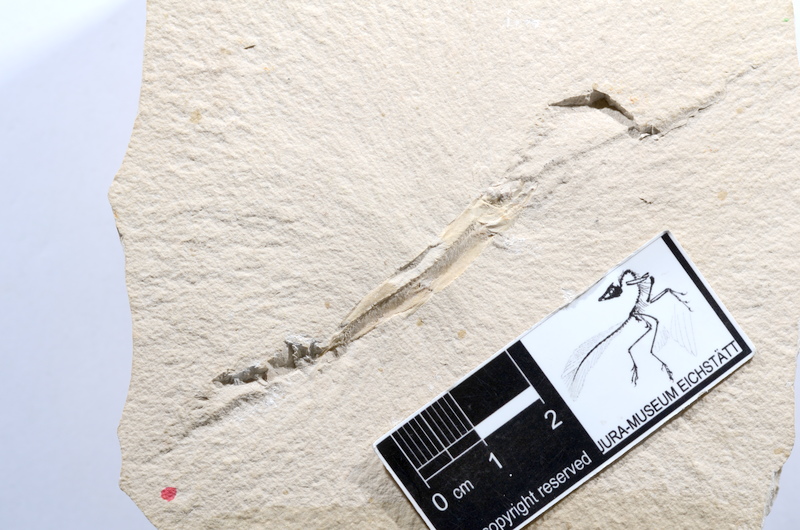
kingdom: Animalia
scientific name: Animalia
